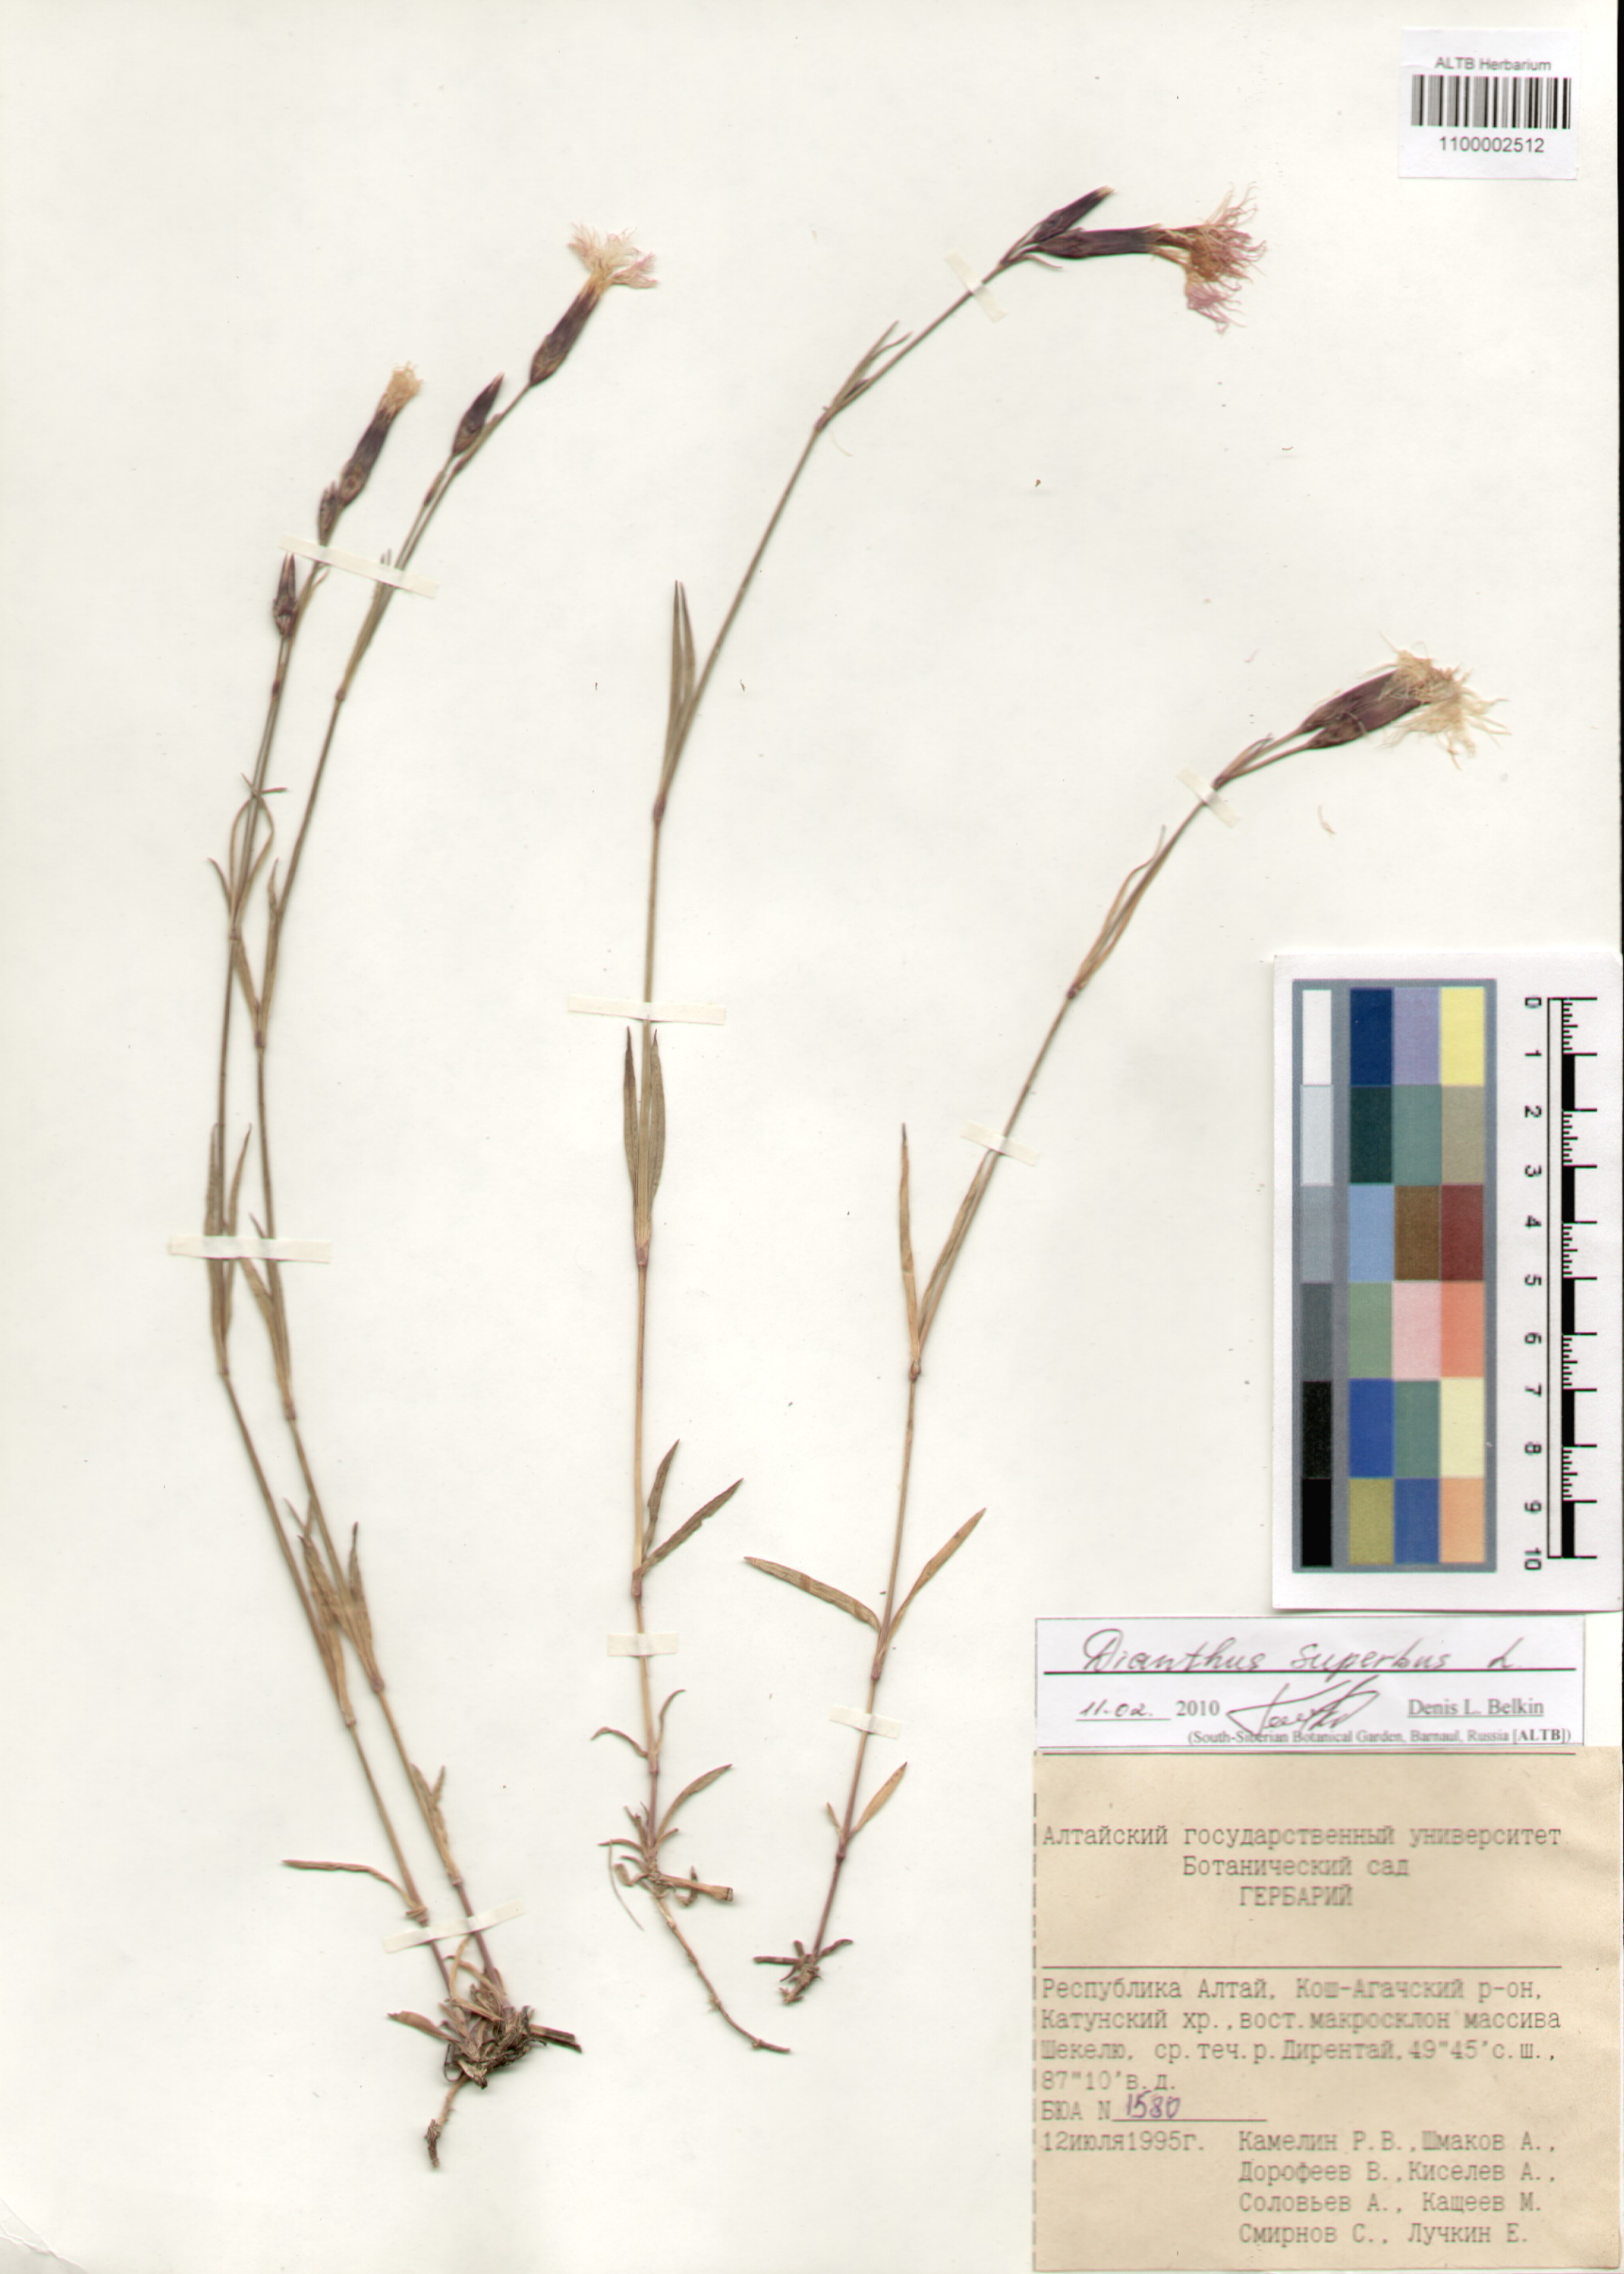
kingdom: Plantae
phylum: Tracheophyta
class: Magnoliopsida
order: Caryophyllales
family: Caryophyllaceae
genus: Dianthus
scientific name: Dianthus superbus
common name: Fringed pink
